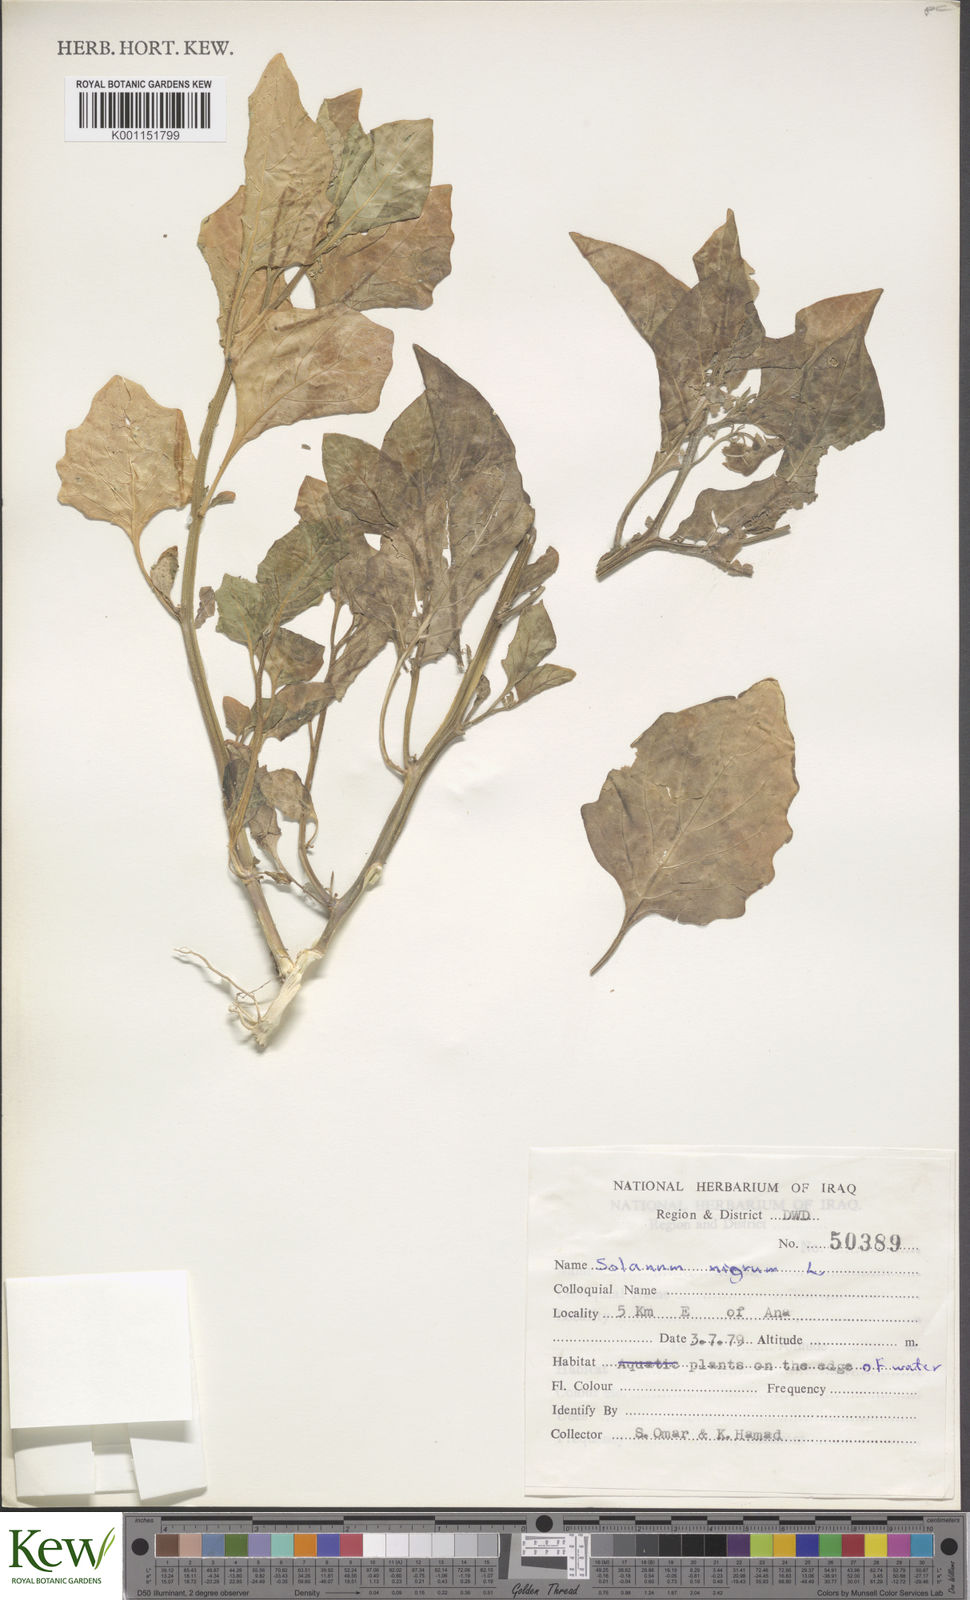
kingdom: Plantae
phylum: Tracheophyta
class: Magnoliopsida
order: Solanales
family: Solanaceae
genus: Solanum
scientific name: Solanum nigrum
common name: Black nightshade
